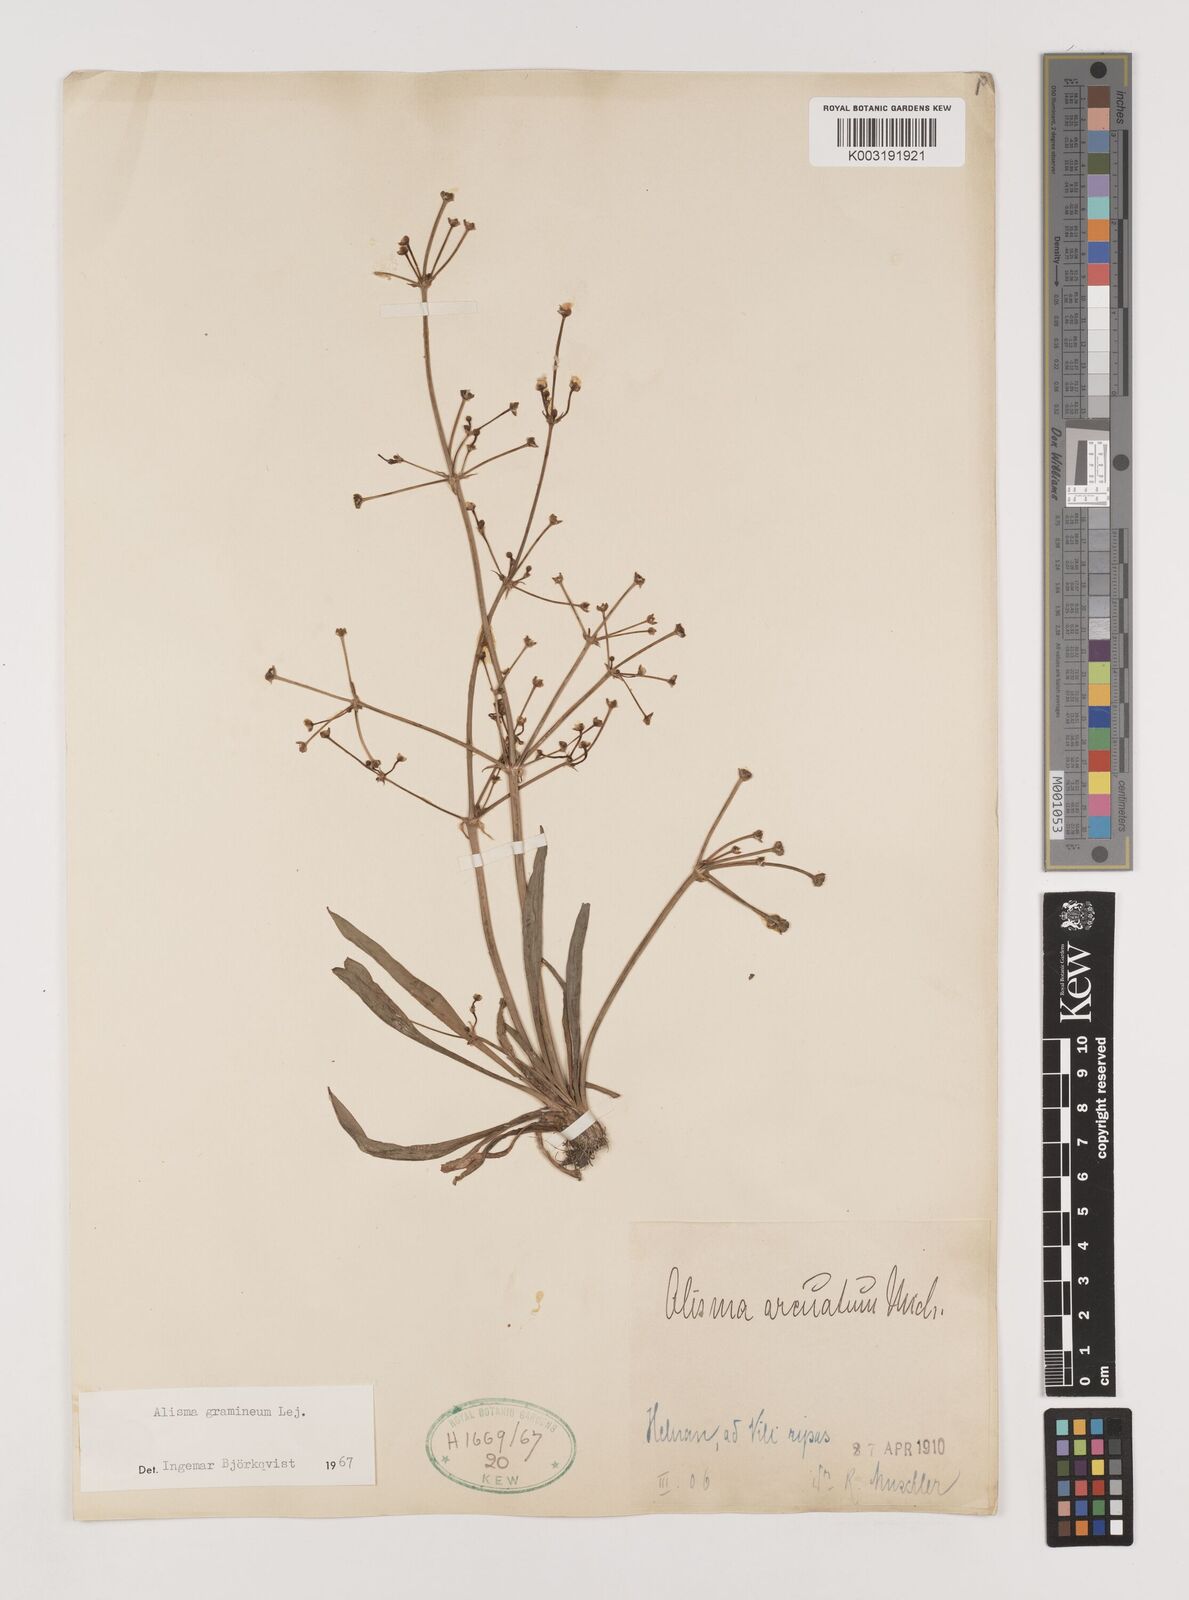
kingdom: Plantae
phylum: Tracheophyta
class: Liliopsida
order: Alismatales
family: Alismataceae
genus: Alisma
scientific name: Alisma gramineum
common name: Ribbon-leaved water-plantain
